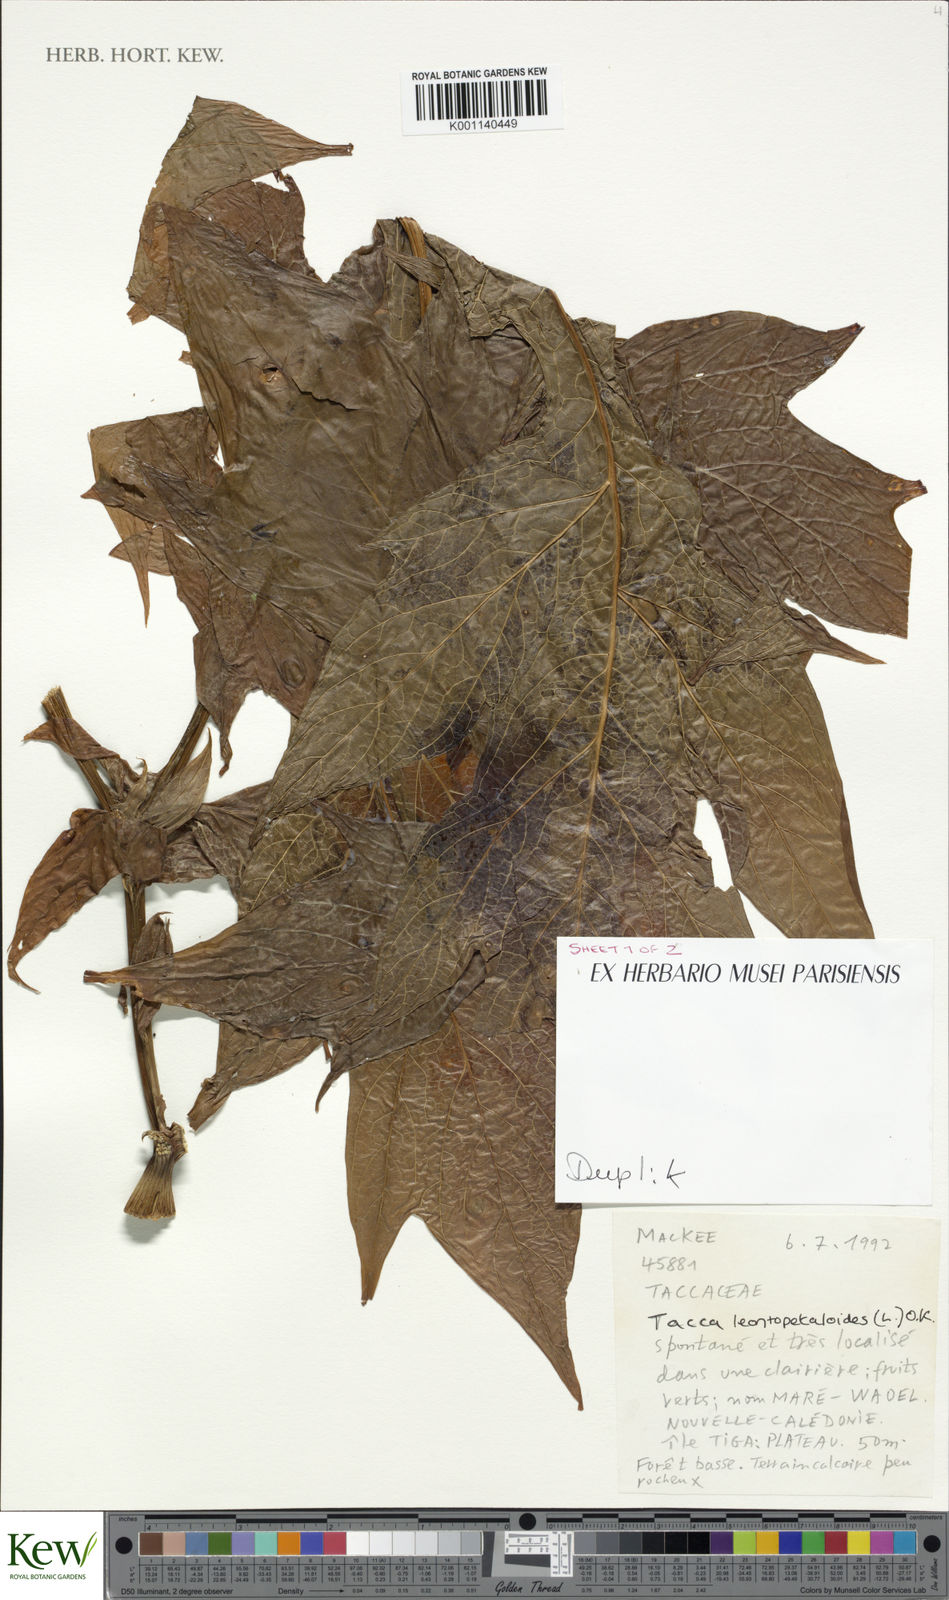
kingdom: Plantae
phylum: Tracheophyta
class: Liliopsida
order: Dioscoreales
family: Dioscoreaceae
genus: Tacca
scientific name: Tacca leontopetaloides
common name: Arrowroot
